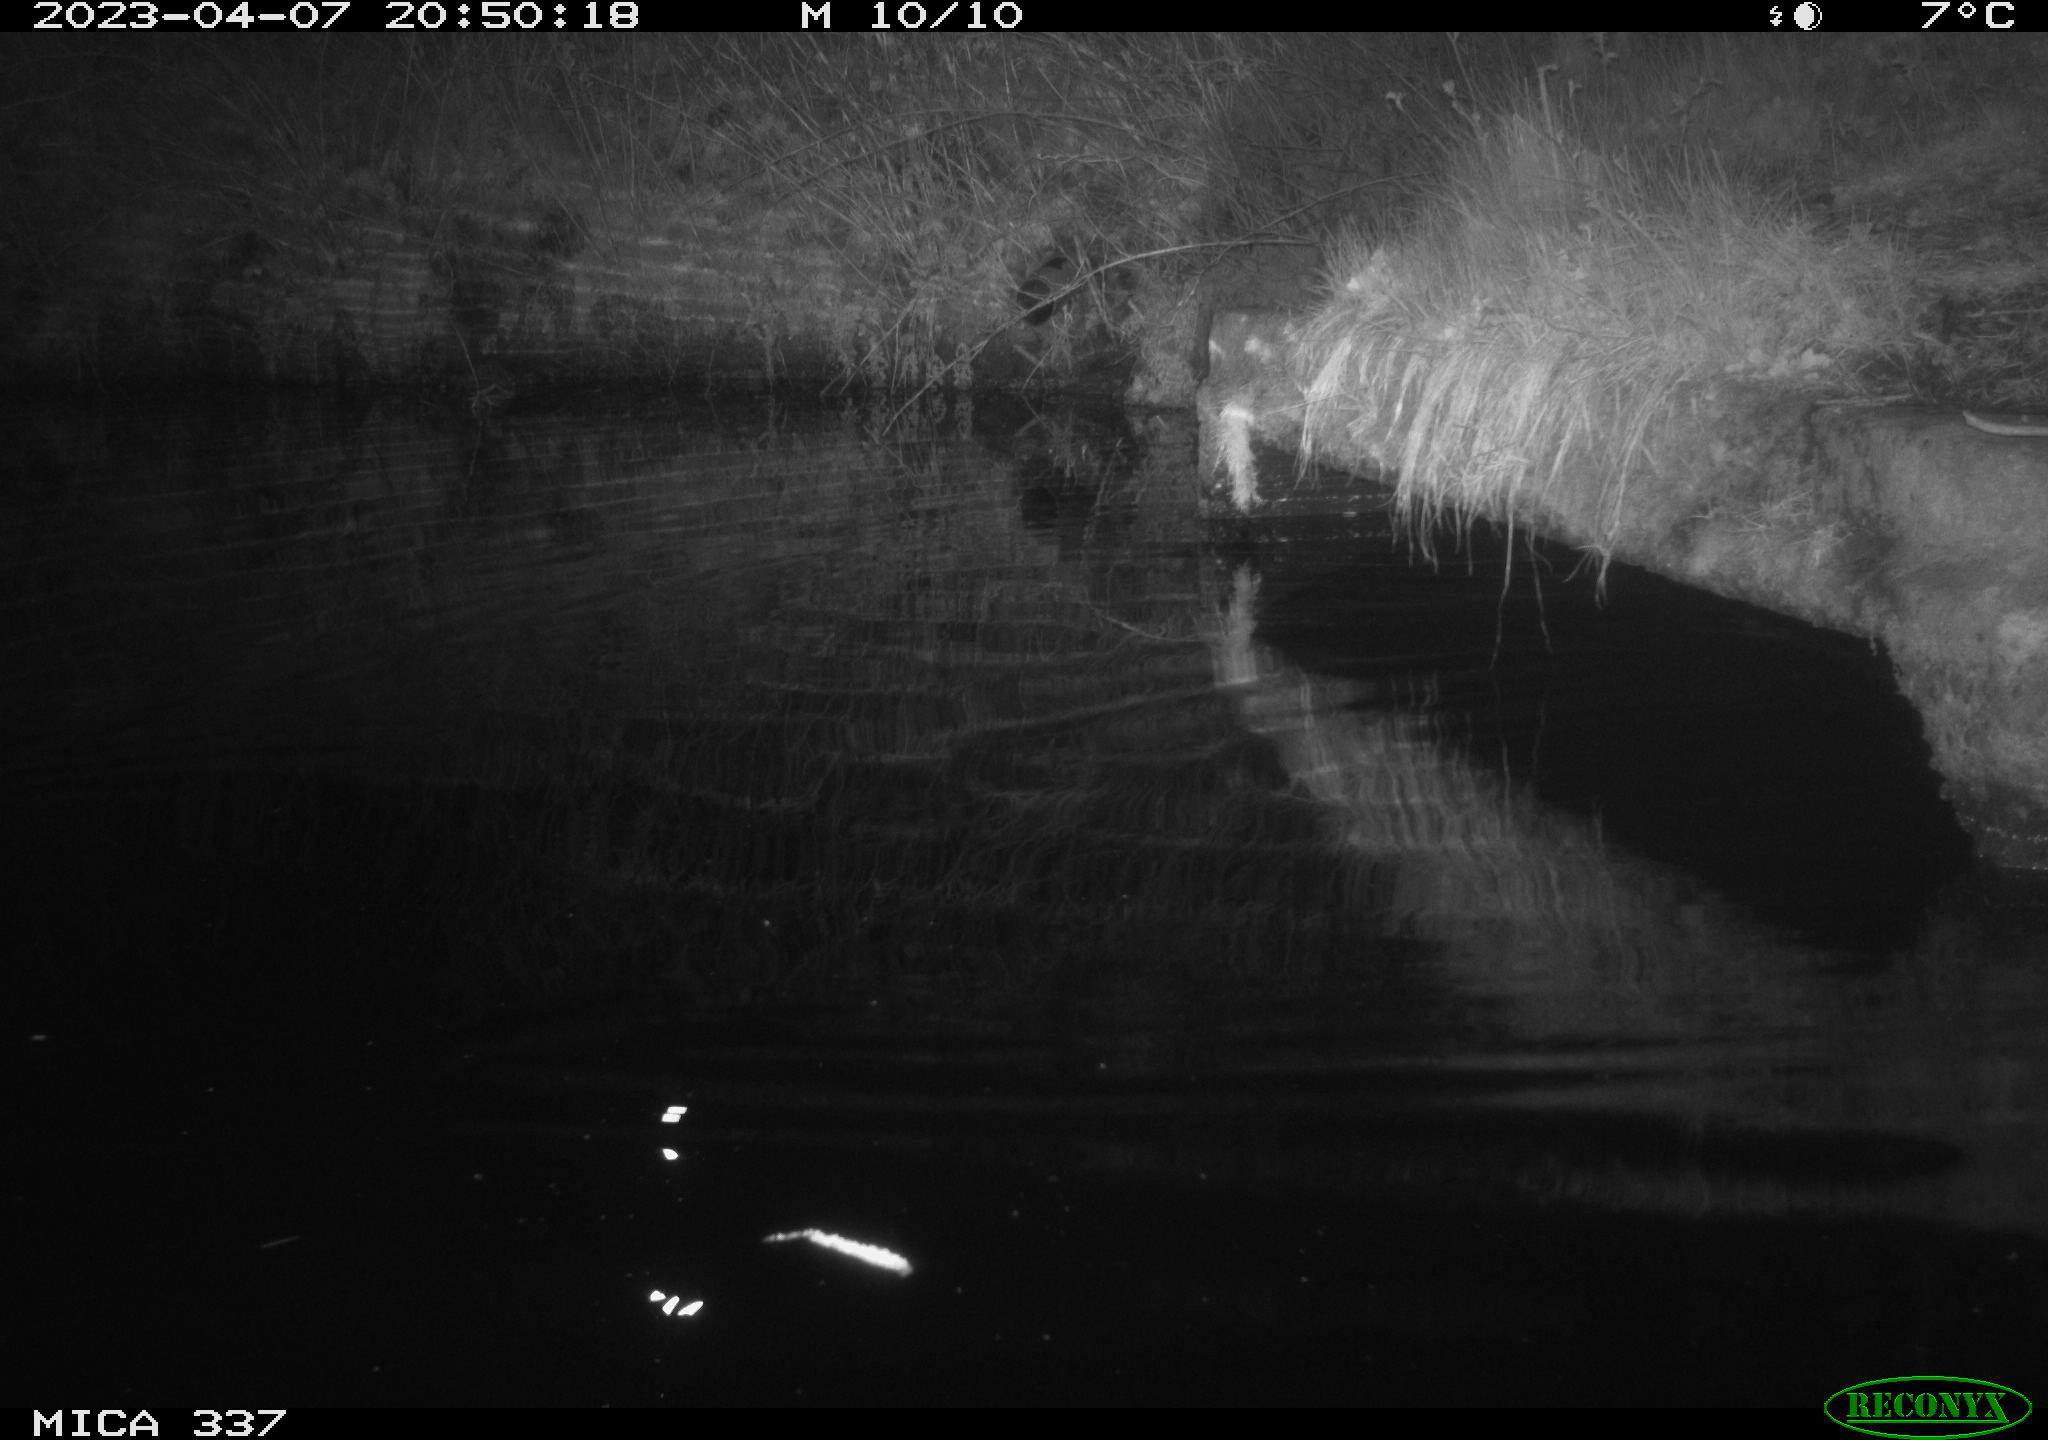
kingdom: Animalia
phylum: Chordata
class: Aves
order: Anseriformes
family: Anatidae
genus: Anas
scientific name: Anas
